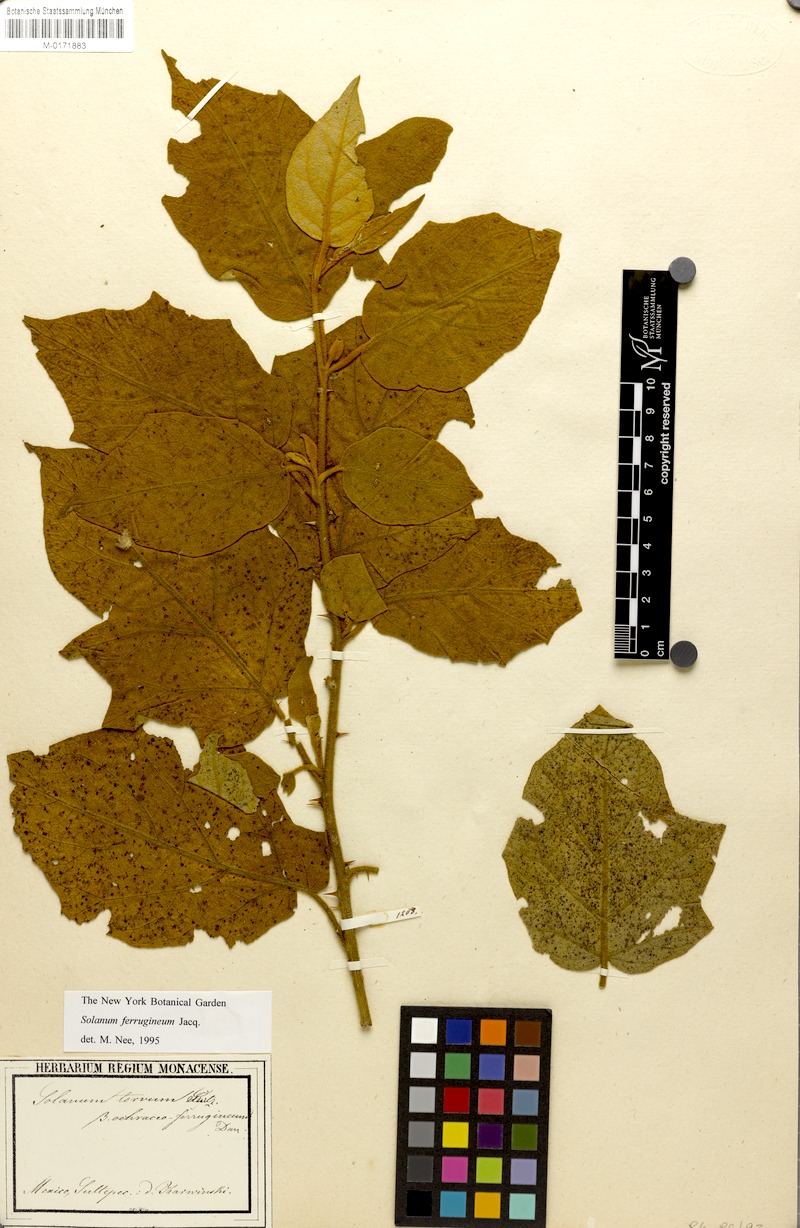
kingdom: Plantae
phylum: Tracheophyta
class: Magnoliopsida
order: Solanales
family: Solanaceae
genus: Solanum
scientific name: Solanum ferrugineum
